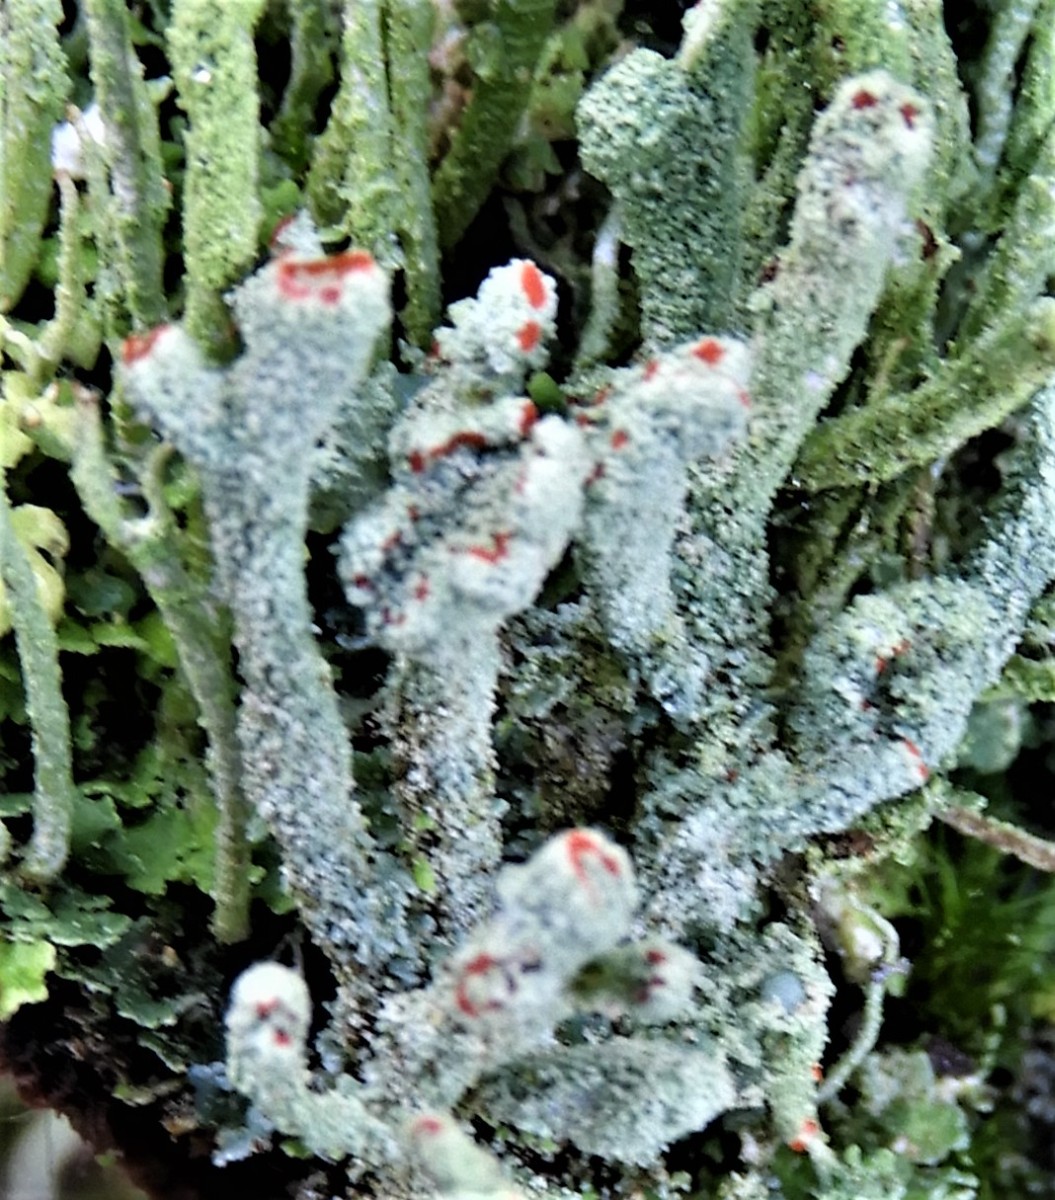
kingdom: Fungi
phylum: Ascomycota
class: Lecanoromycetes
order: Lecanorales
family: Cladoniaceae
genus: Cladonia
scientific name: Cladonia
